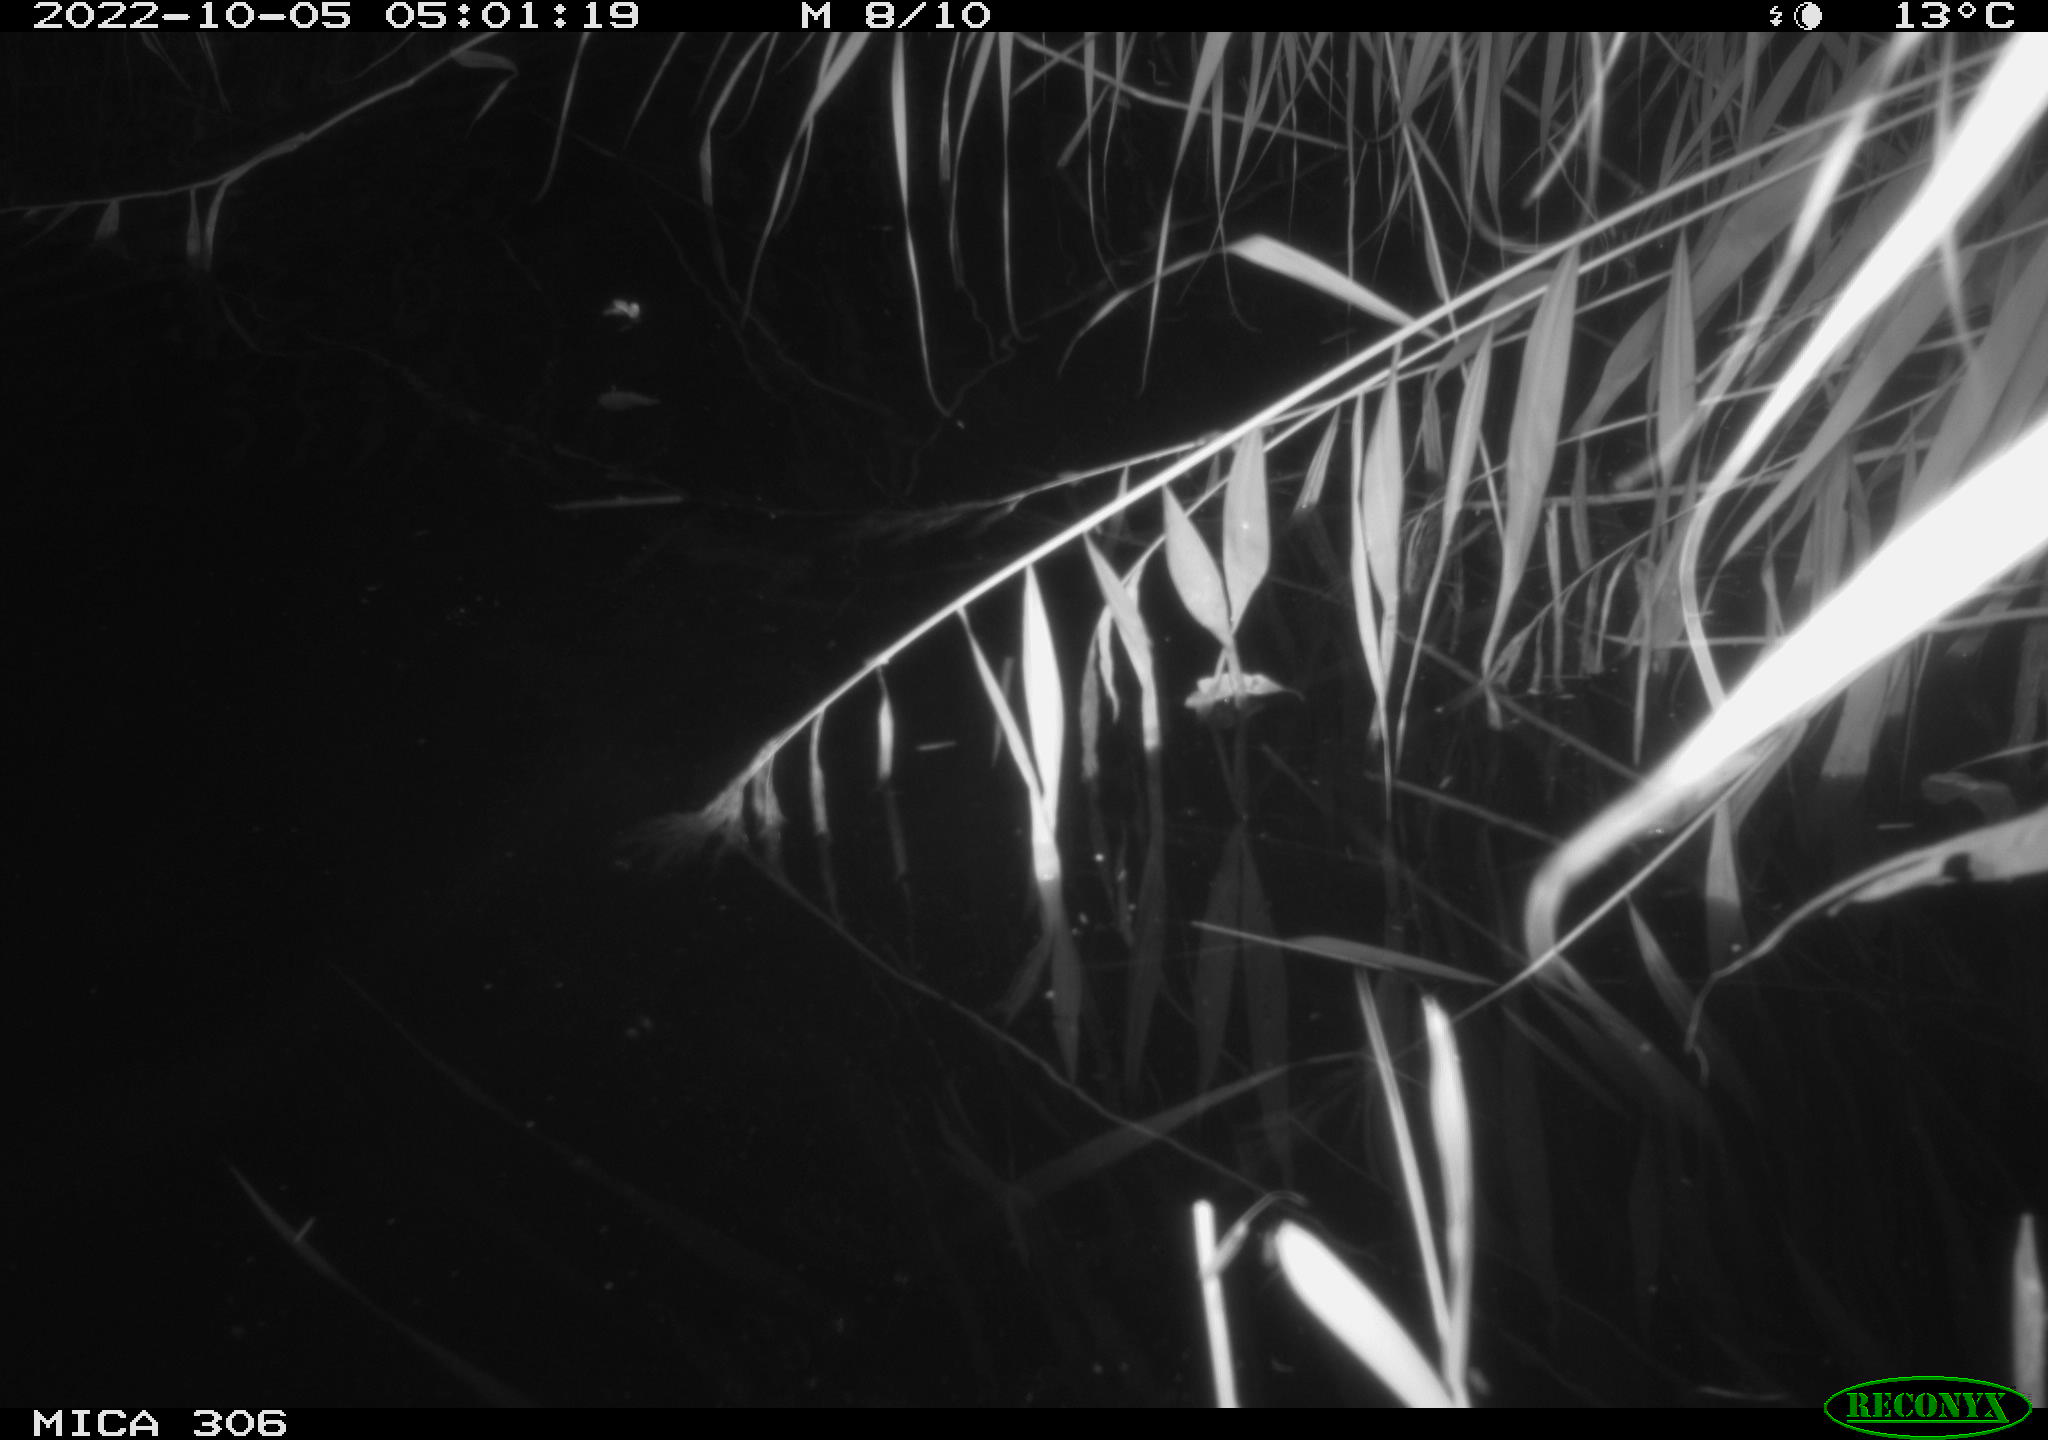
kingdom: Animalia
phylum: Chordata
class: Mammalia
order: Rodentia
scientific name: Rodentia
